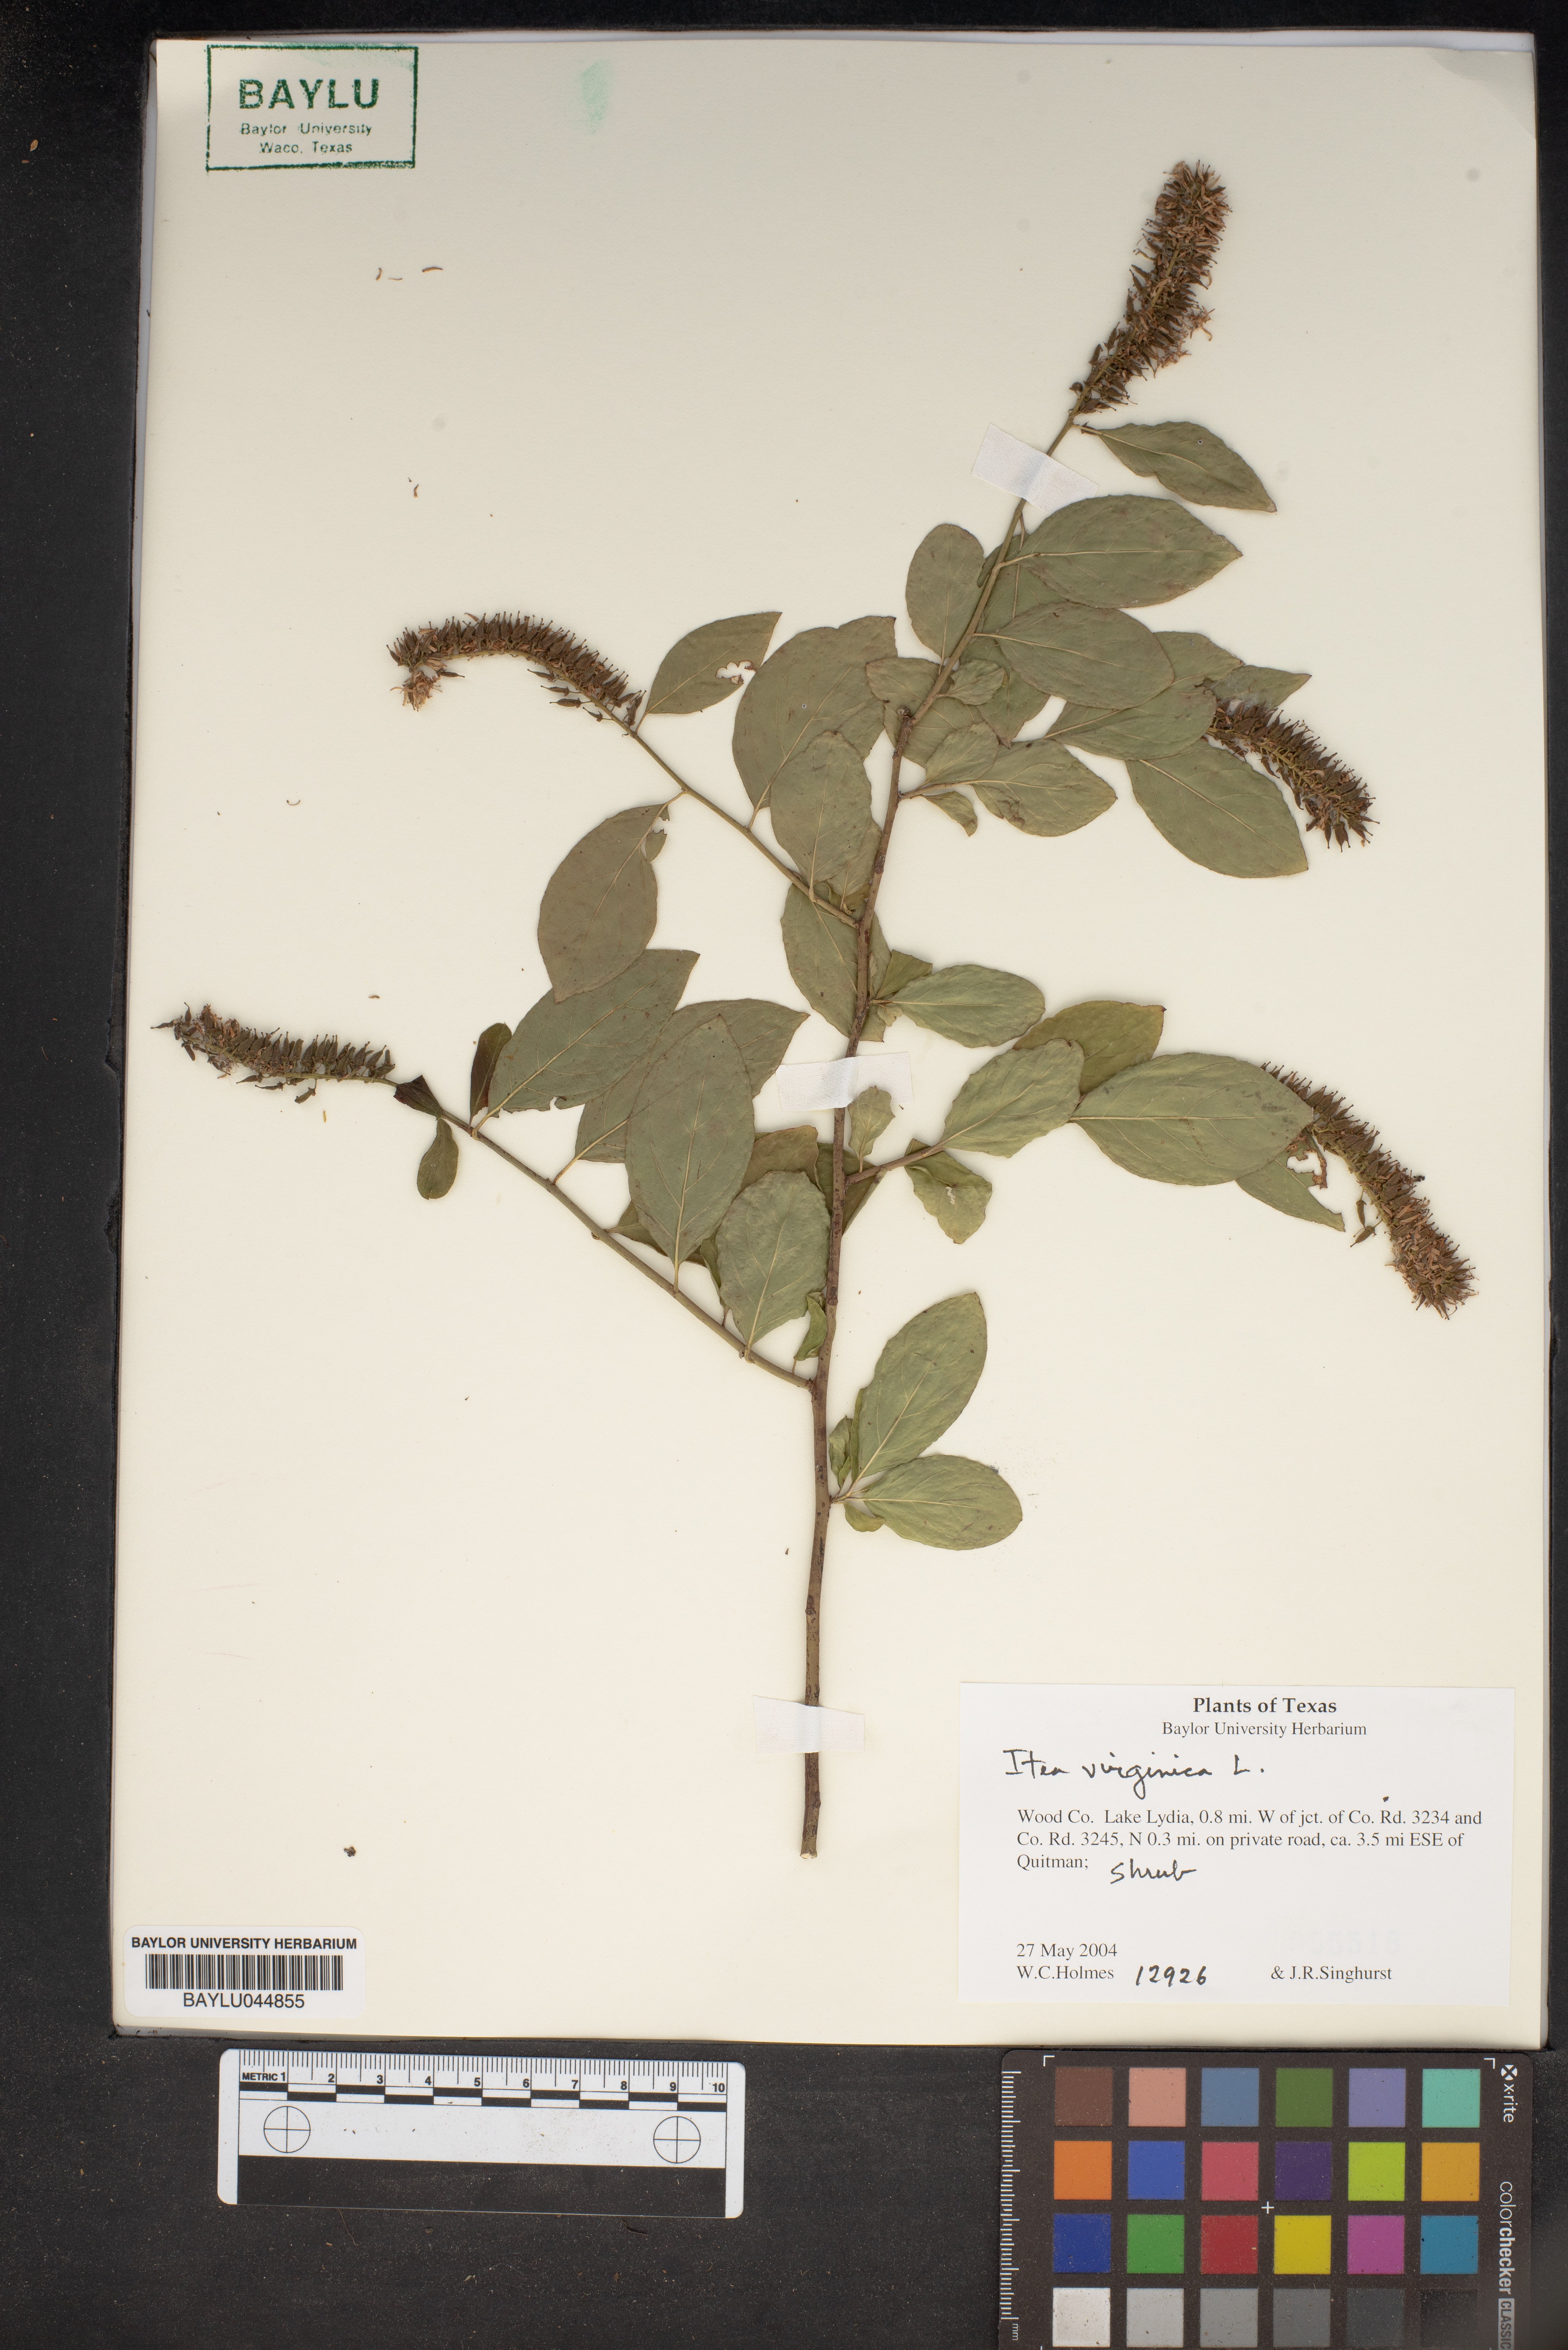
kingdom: Plantae
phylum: Tracheophyta
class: Magnoliopsida
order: Saxifragales
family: Iteaceae
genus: Itea
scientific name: Itea virginica
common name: Sweetspire
